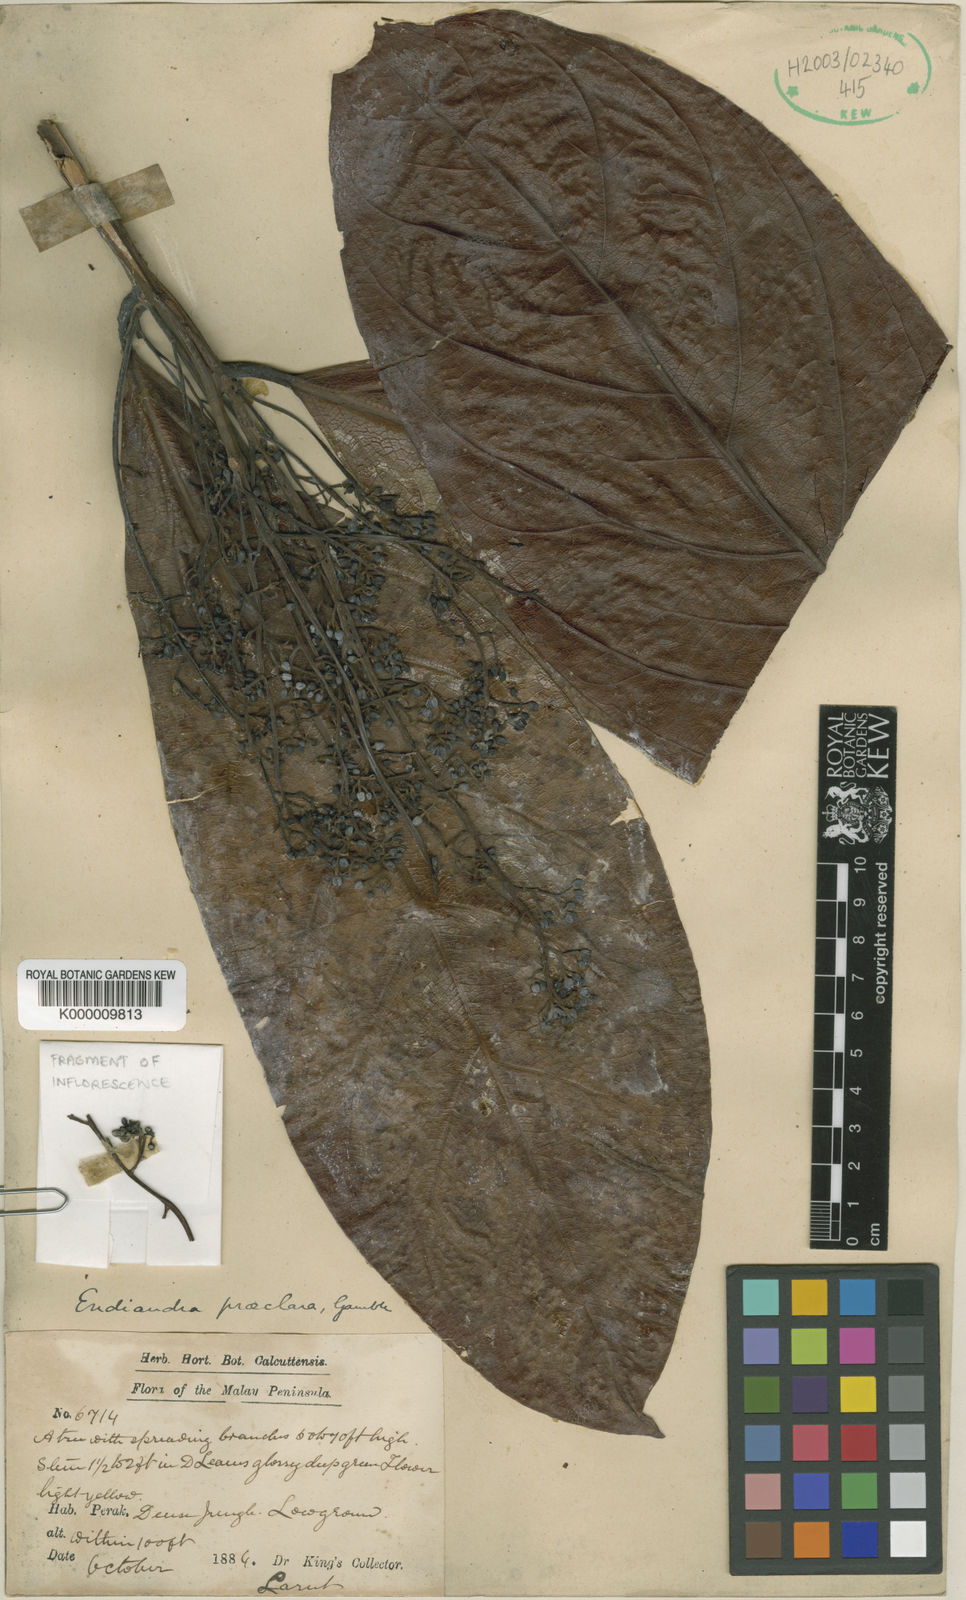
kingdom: Plantae
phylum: Tracheophyta
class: Magnoliopsida
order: Laurales
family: Lauraceae
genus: Endiandra
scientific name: Endiandra praeclara
